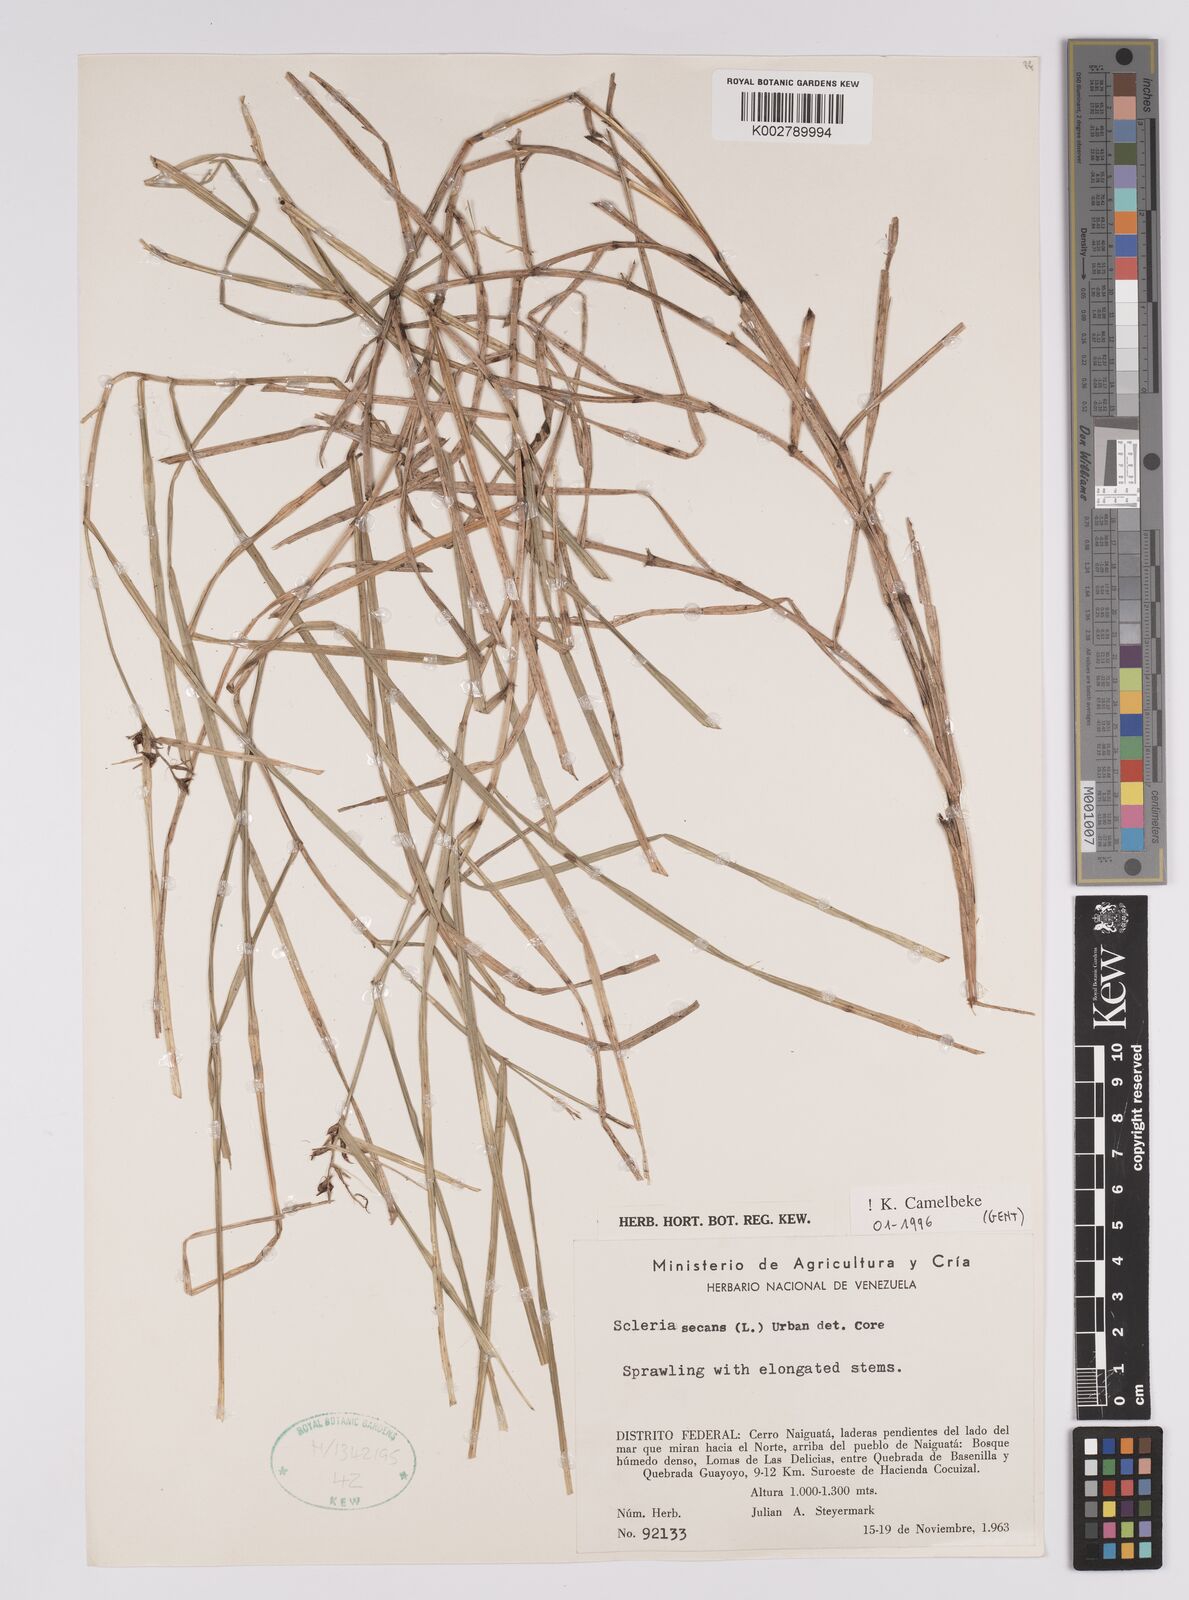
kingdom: Plantae
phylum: Tracheophyta
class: Liliopsida
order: Poales
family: Cyperaceae
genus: Scleria
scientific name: Scleria secans
